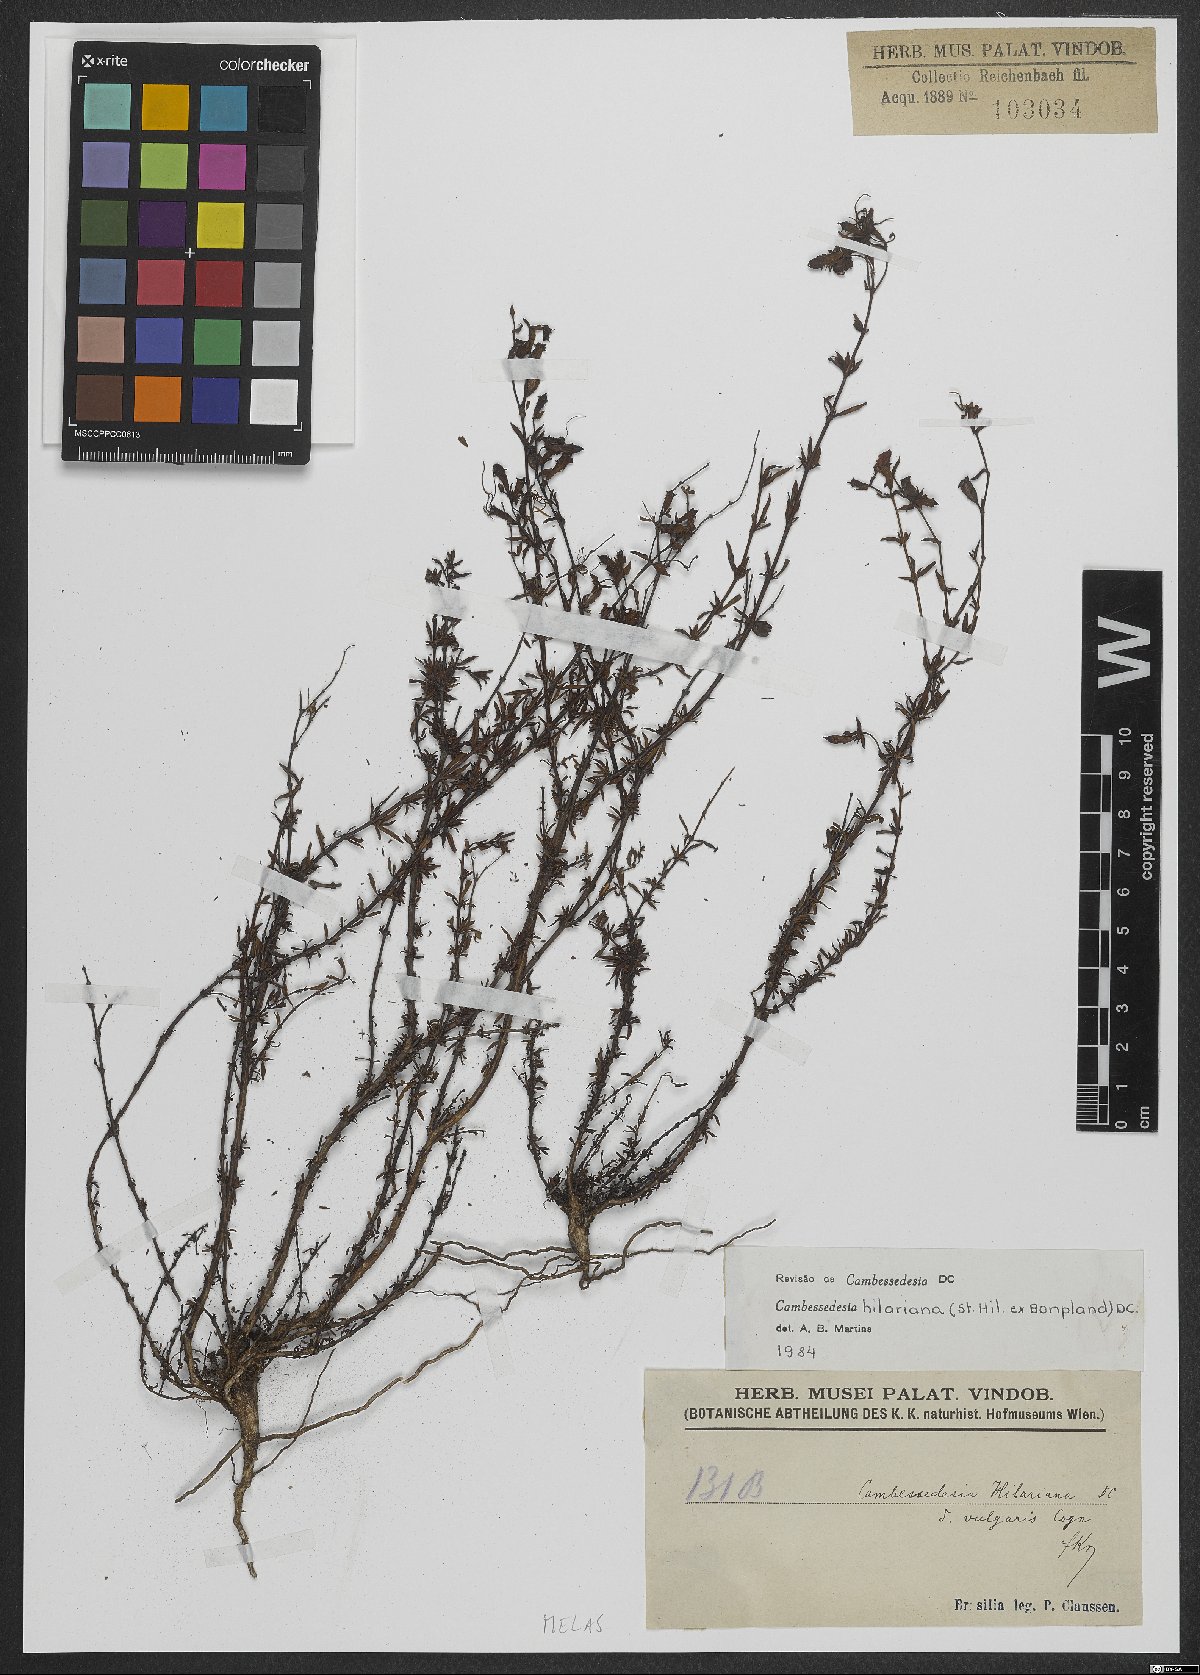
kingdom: Plantae
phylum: Tracheophyta
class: Magnoliopsida
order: Myrtales
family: Melastomataceae
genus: Cambessedesia
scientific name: Cambessedesia hilariana
